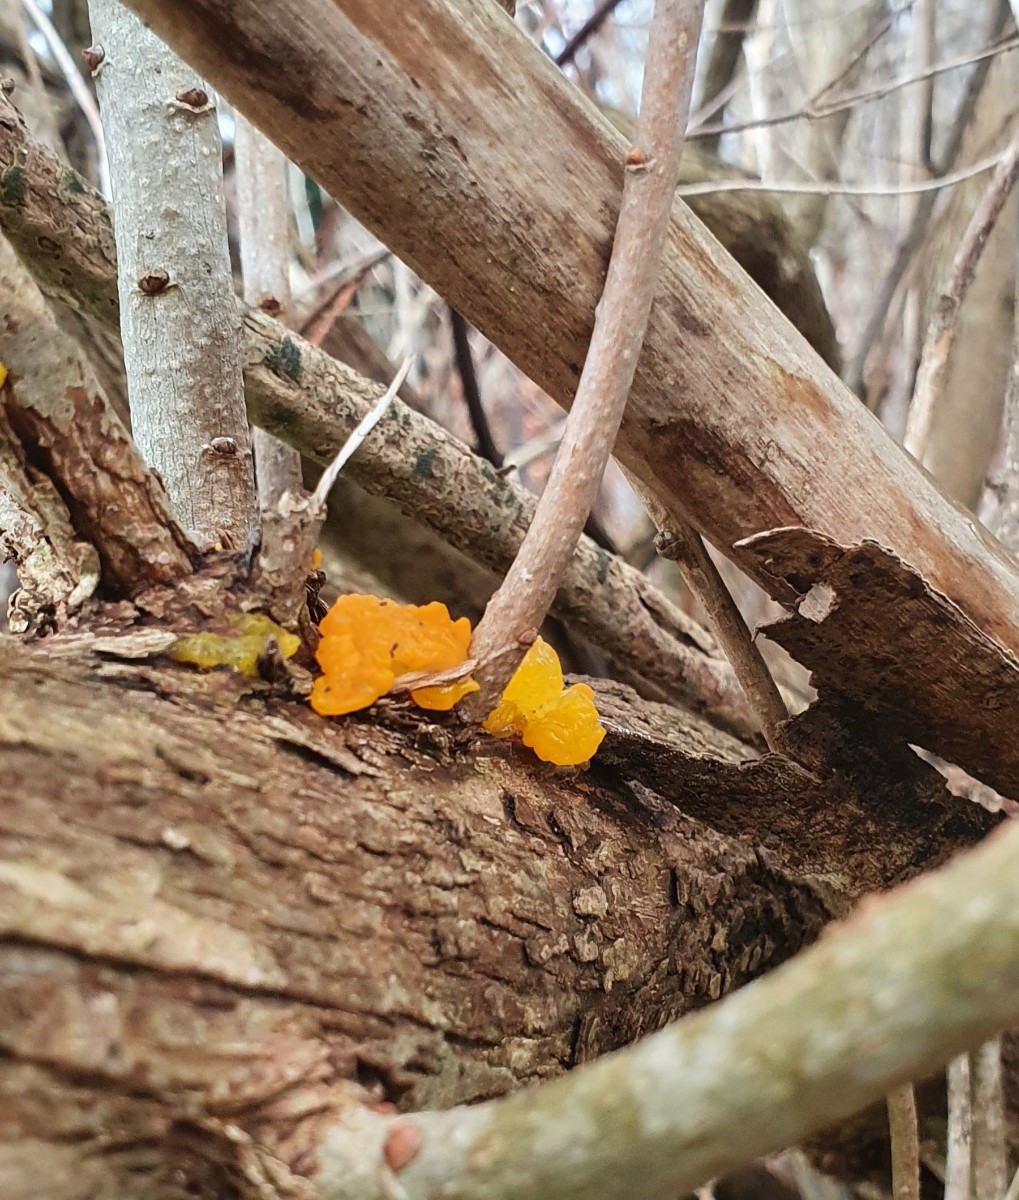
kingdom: Fungi
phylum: Basidiomycota
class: Tremellomycetes
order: Tremellales
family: Tremellaceae
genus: Tremella
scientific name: Tremella mesenterica
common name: gul bævresvamp
